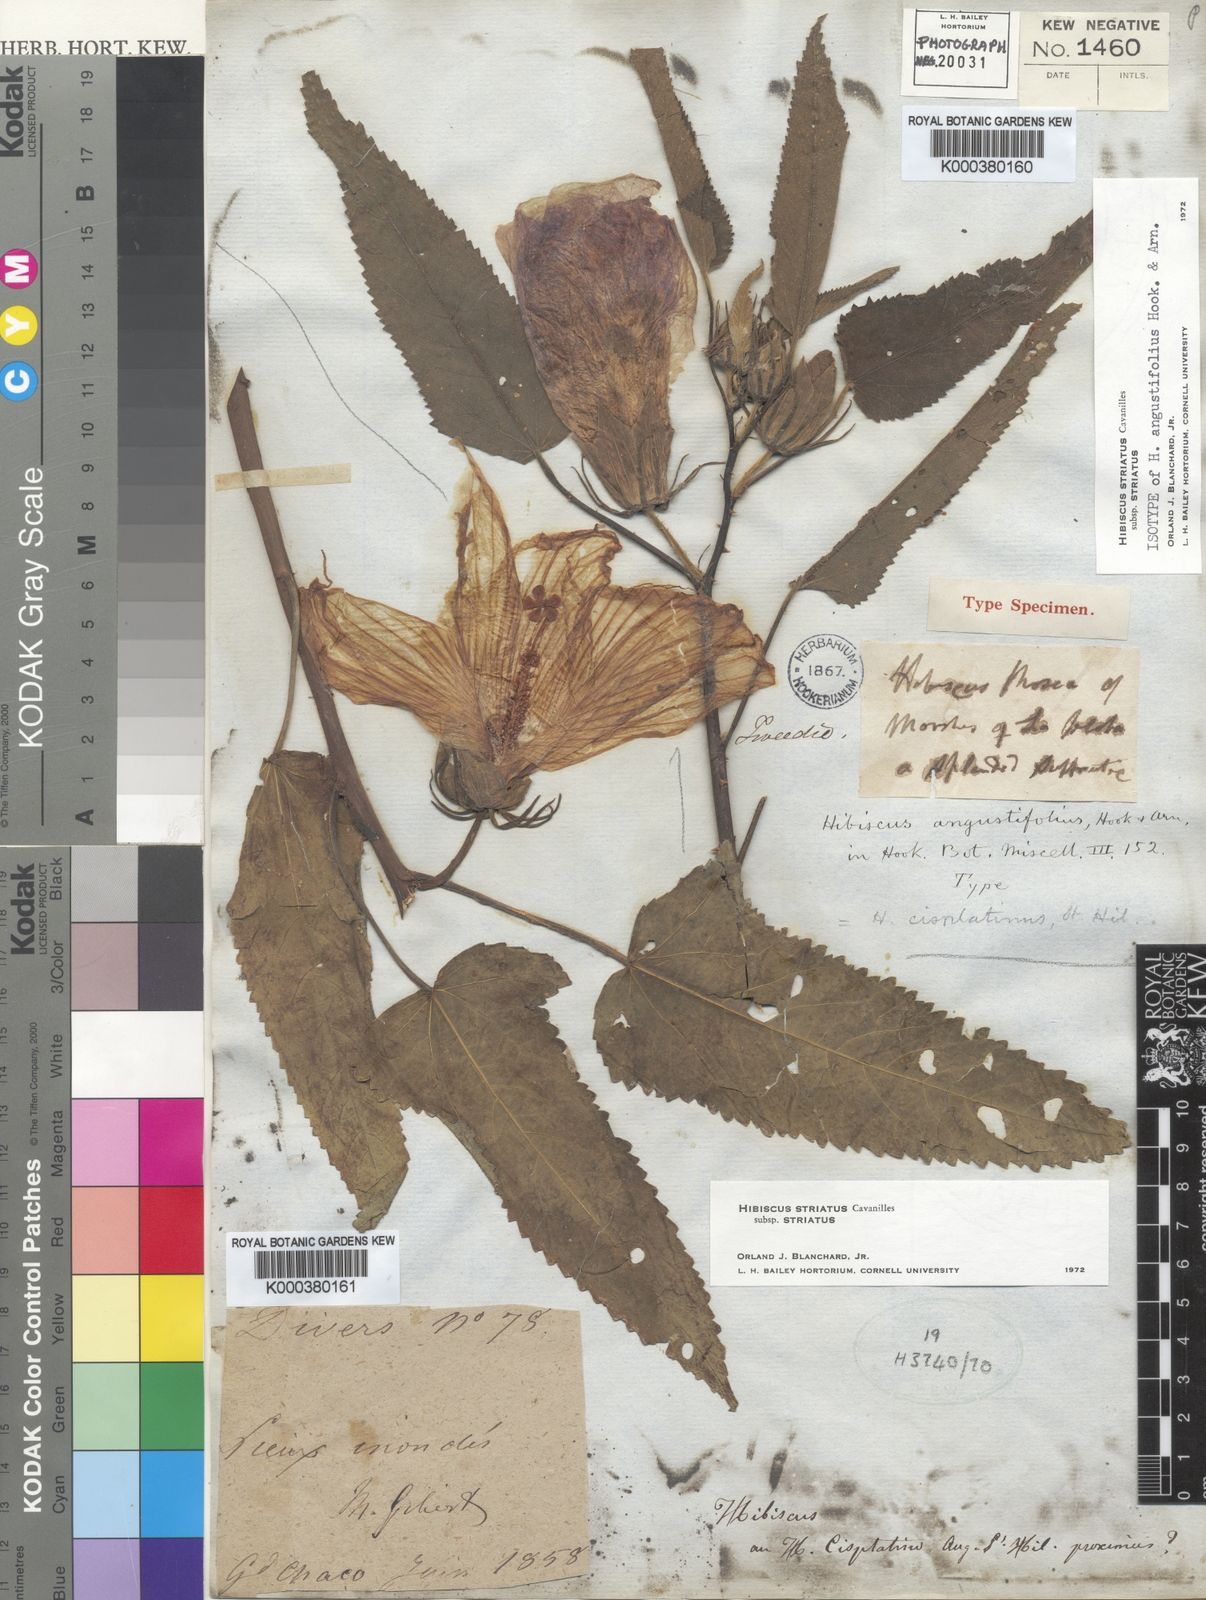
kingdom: Plantae
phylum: Tracheophyta
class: Magnoliopsida
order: Malvales
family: Malvaceae
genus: Hibiscus
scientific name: Hibiscus
